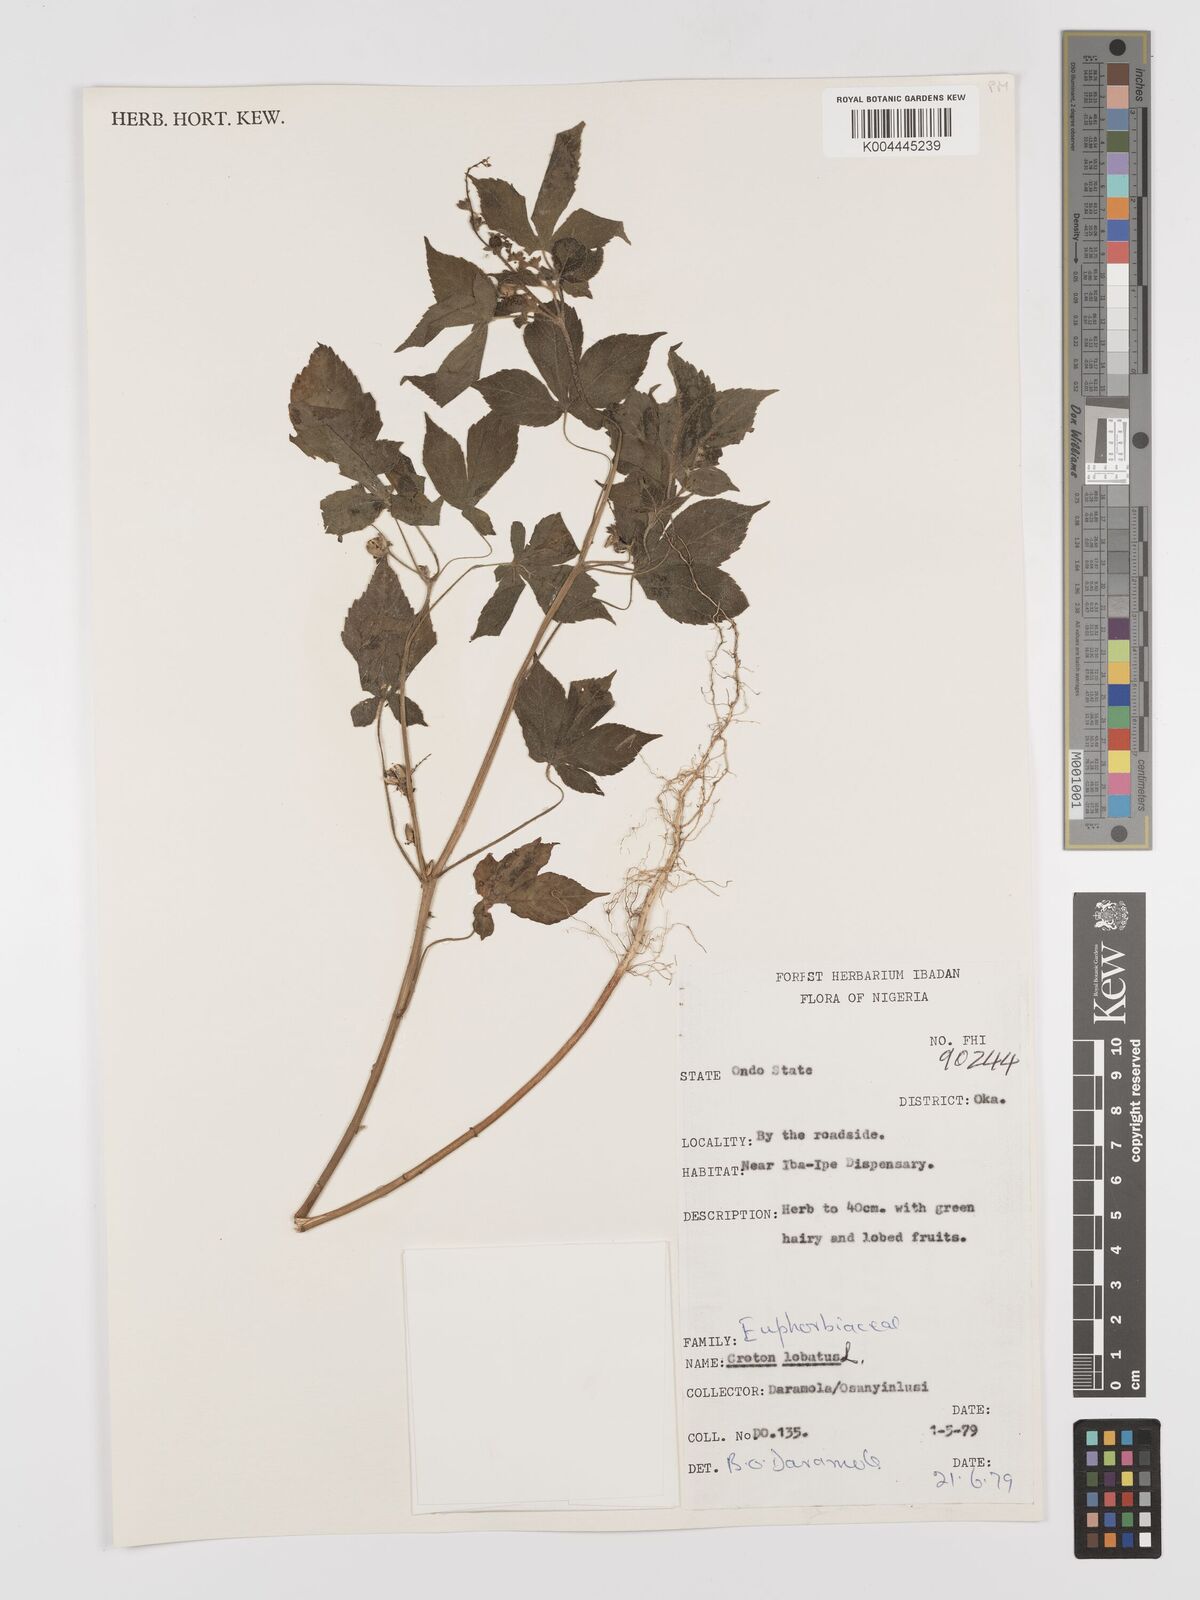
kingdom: Plantae
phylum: Tracheophyta
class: Magnoliopsida
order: Malpighiales
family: Euphorbiaceae
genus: Astraea
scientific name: Astraea lobata
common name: Lobed croton
